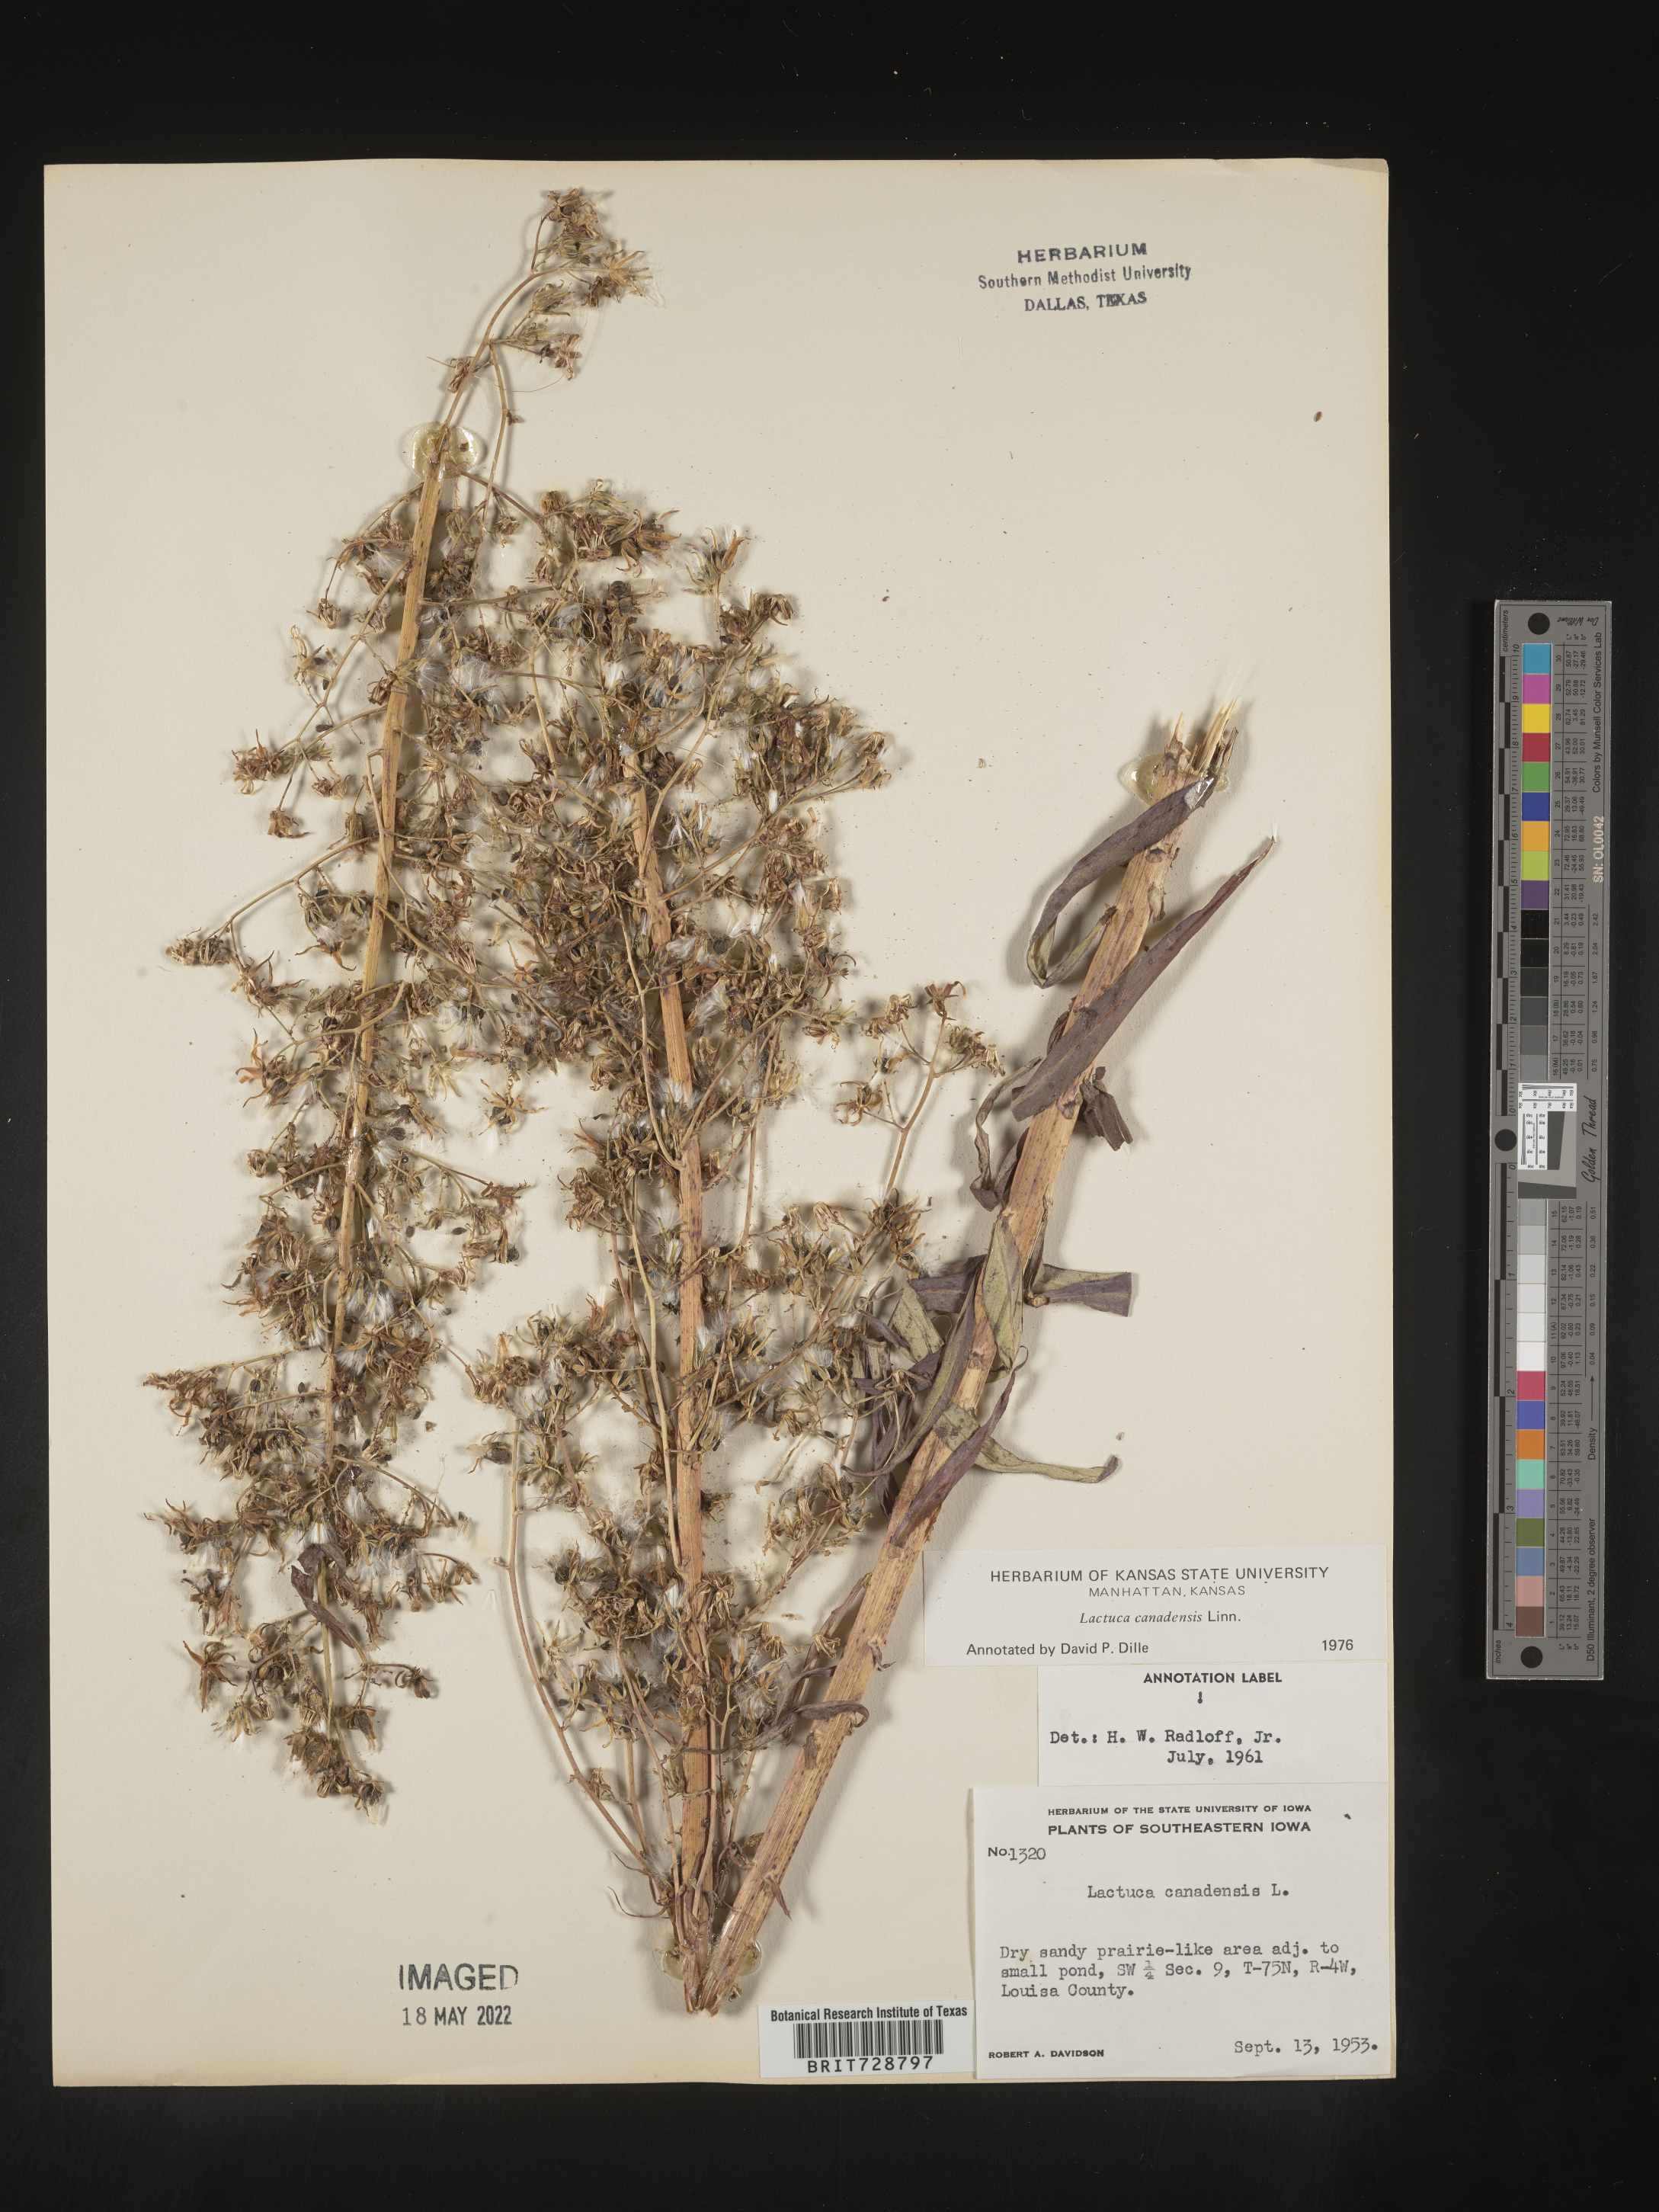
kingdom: Plantae
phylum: Tracheophyta
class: Magnoliopsida
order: Asterales
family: Asteraceae
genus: Lactuca
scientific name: Lactuca canadensis
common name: Canada lettuce
